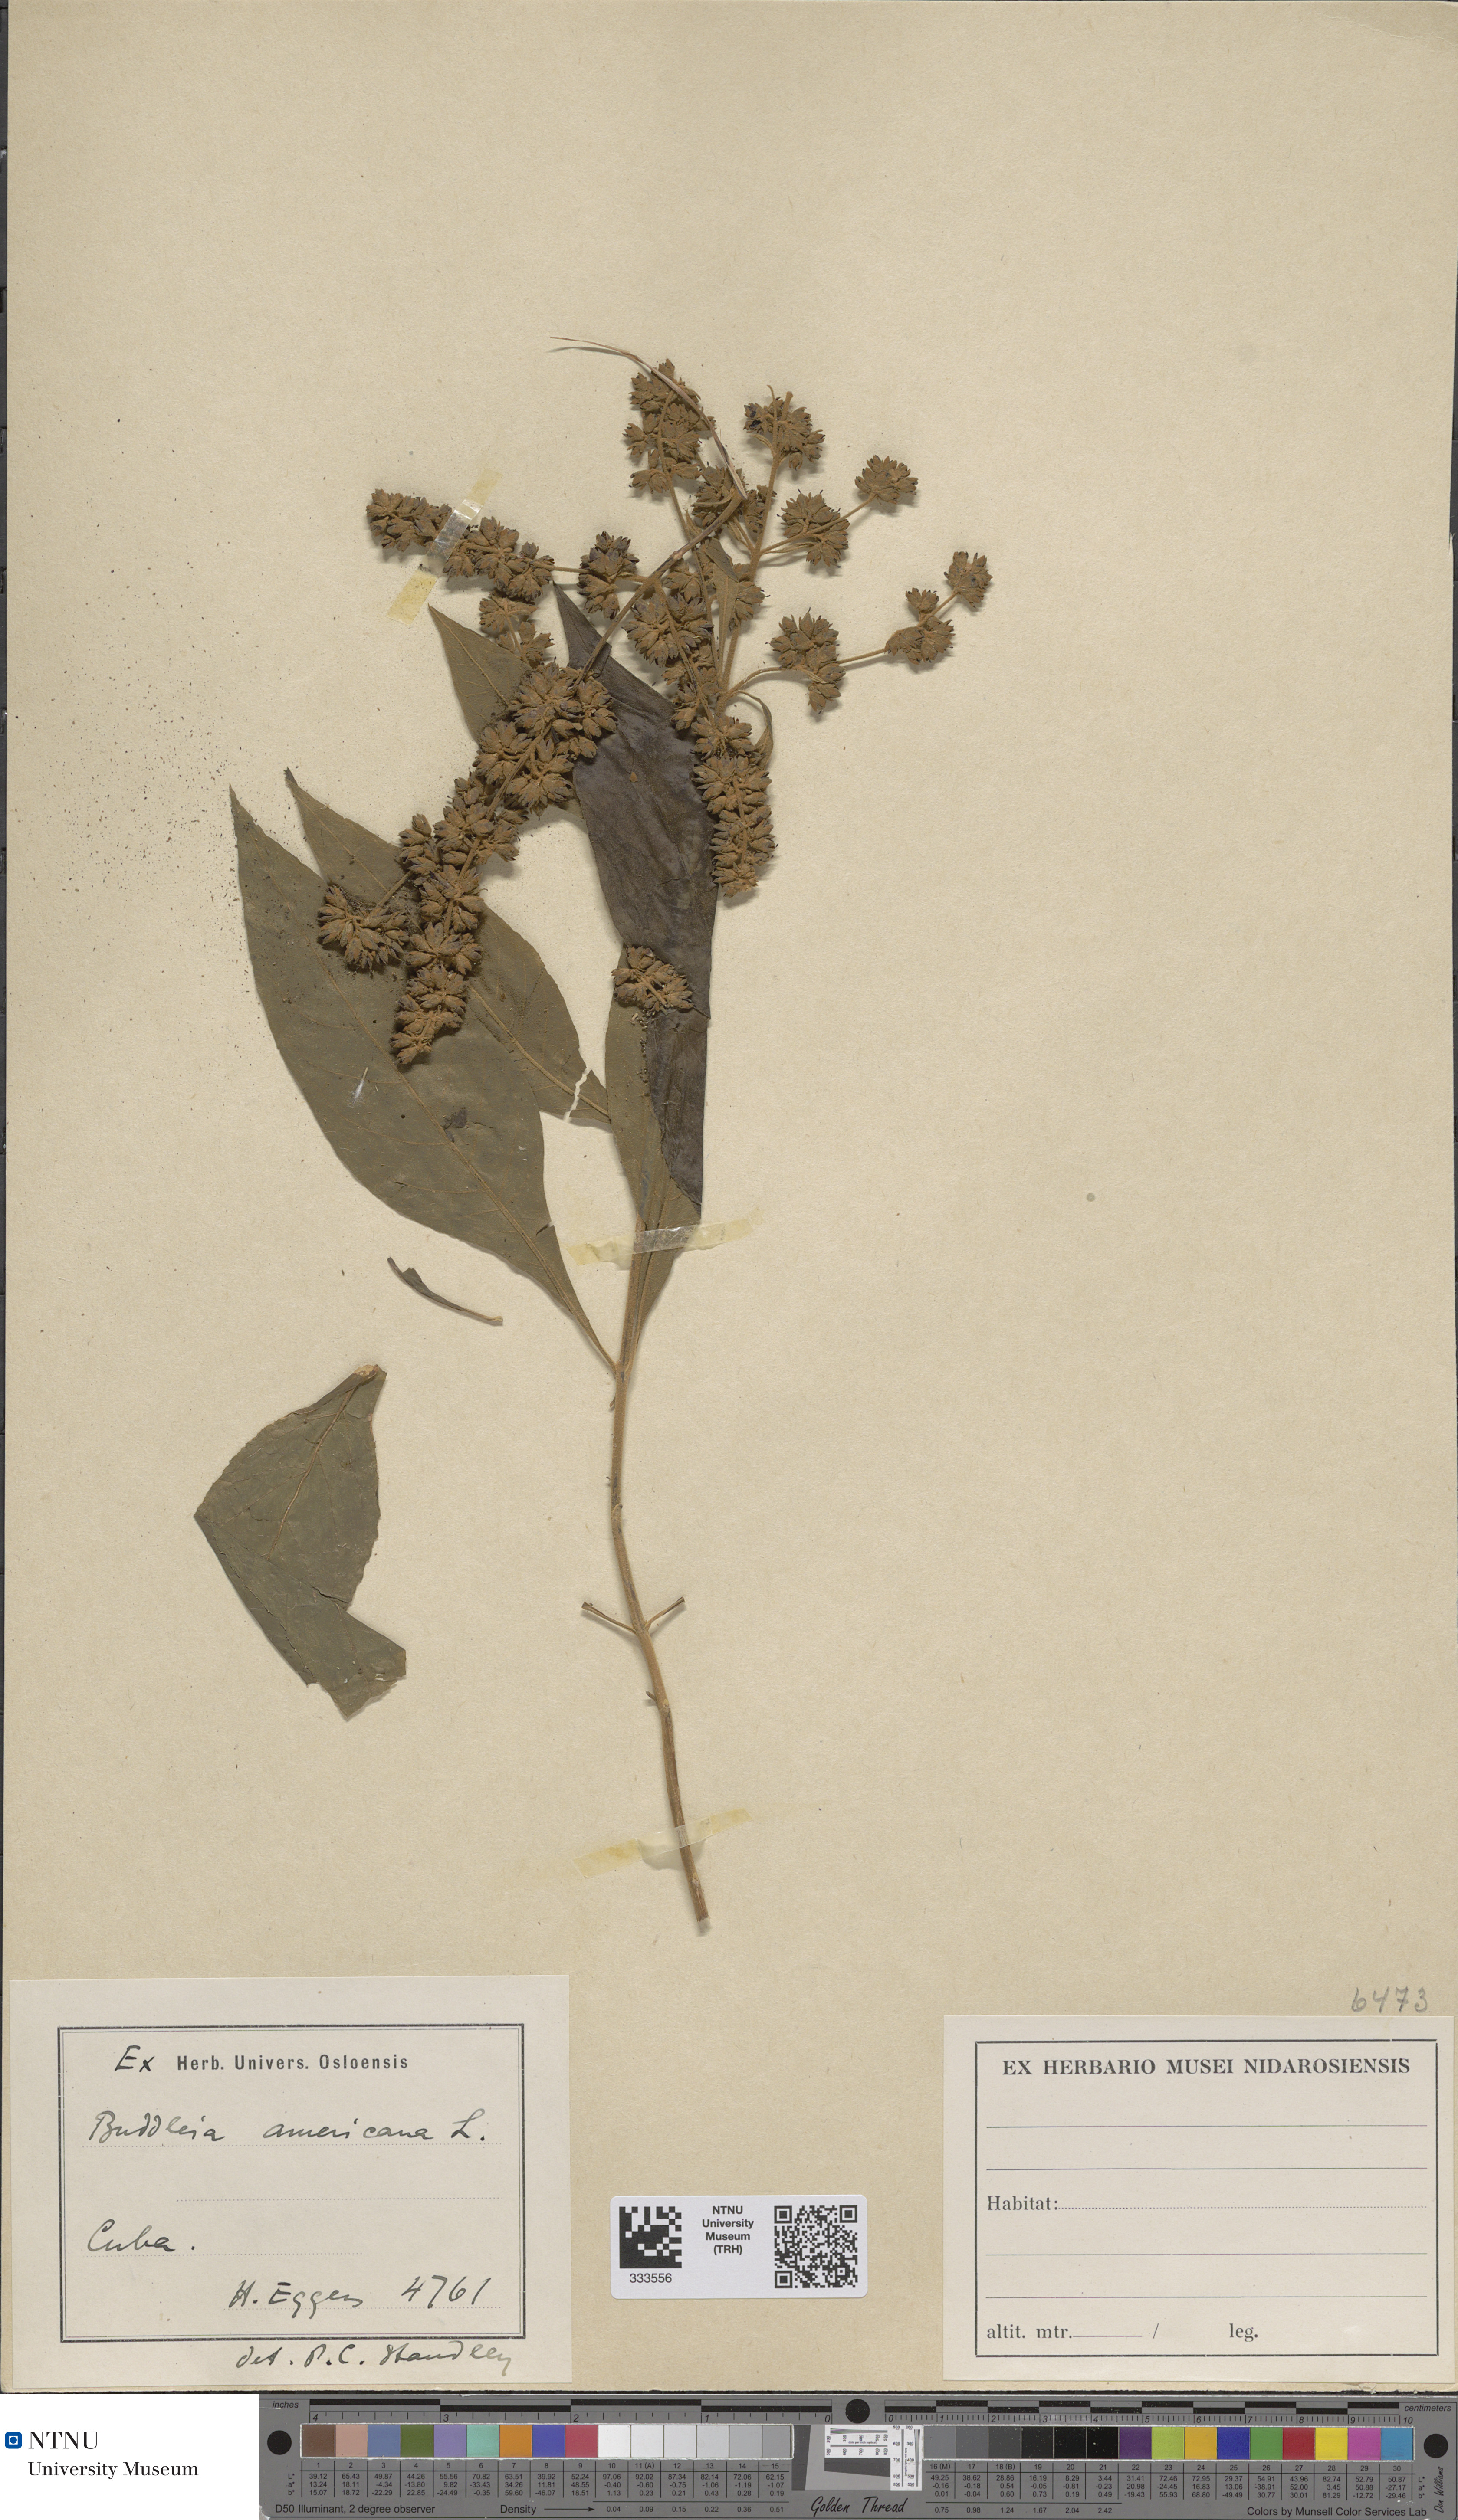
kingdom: Plantae
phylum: Tracheophyta
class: Magnoliopsida
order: Lamiales
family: Scrophulariaceae
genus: Buddleja
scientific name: Buddleja americana
